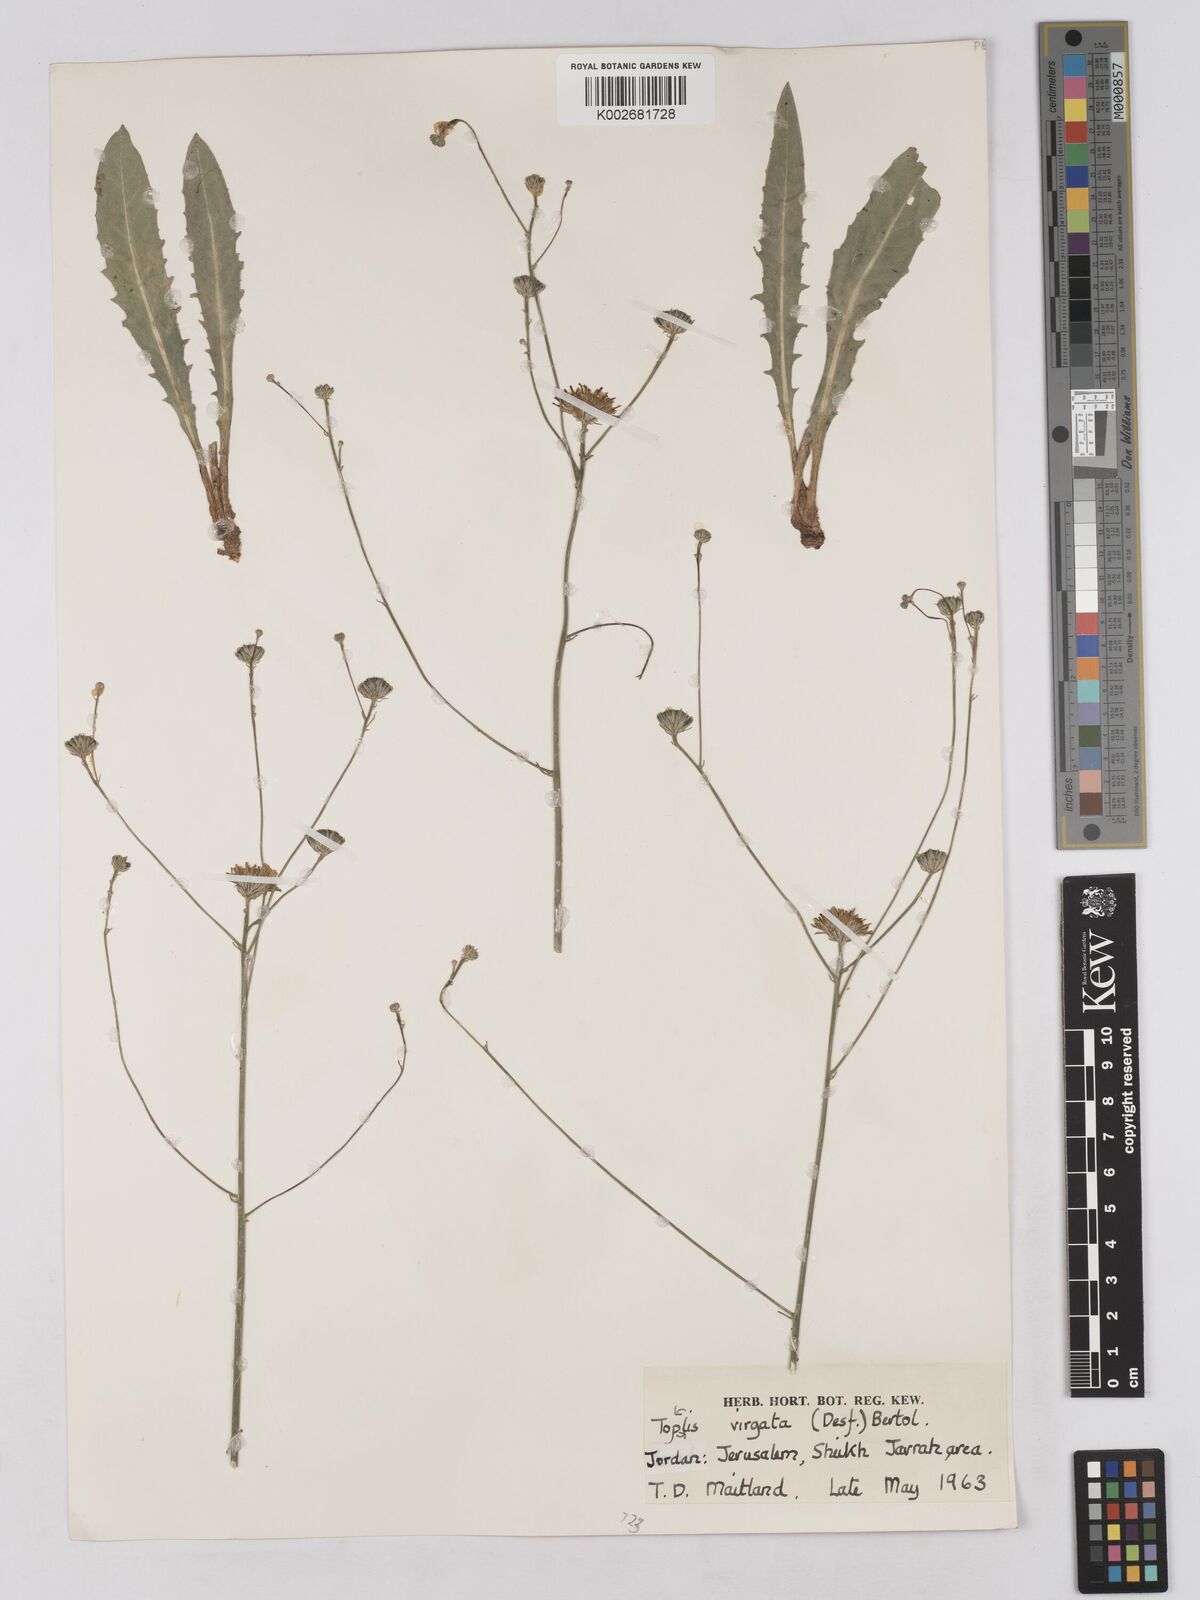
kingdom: Plantae
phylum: Tracheophyta
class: Magnoliopsida
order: Asterales
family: Asteraceae
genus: Tolpis
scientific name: Tolpis virgata
